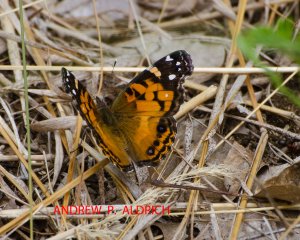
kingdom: Animalia
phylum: Arthropoda
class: Insecta
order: Lepidoptera
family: Nymphalidae
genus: Vanessa
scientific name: Vanessa virginiensis
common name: American Lady
